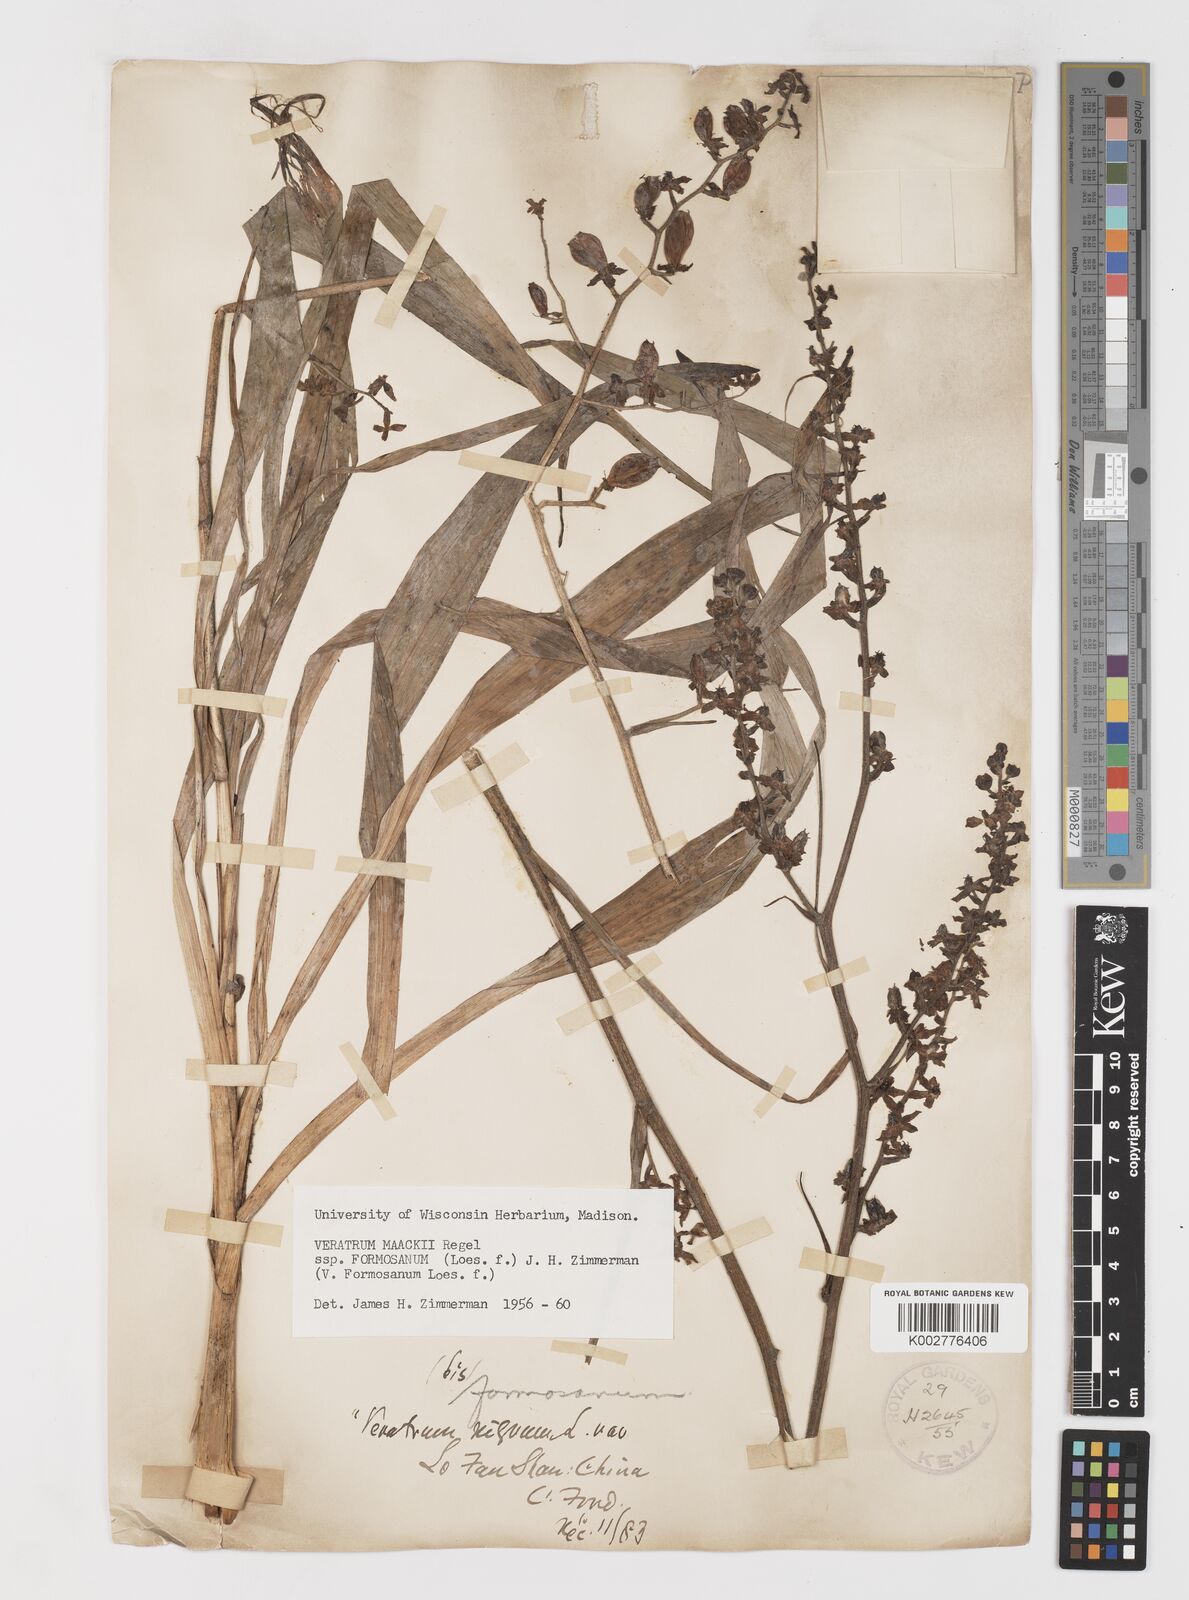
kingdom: Plantae
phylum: Tracheophyta
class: Liliopsida
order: Liliales
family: Melanthiaceae
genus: Veratrum
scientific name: Veratrum formosanum
